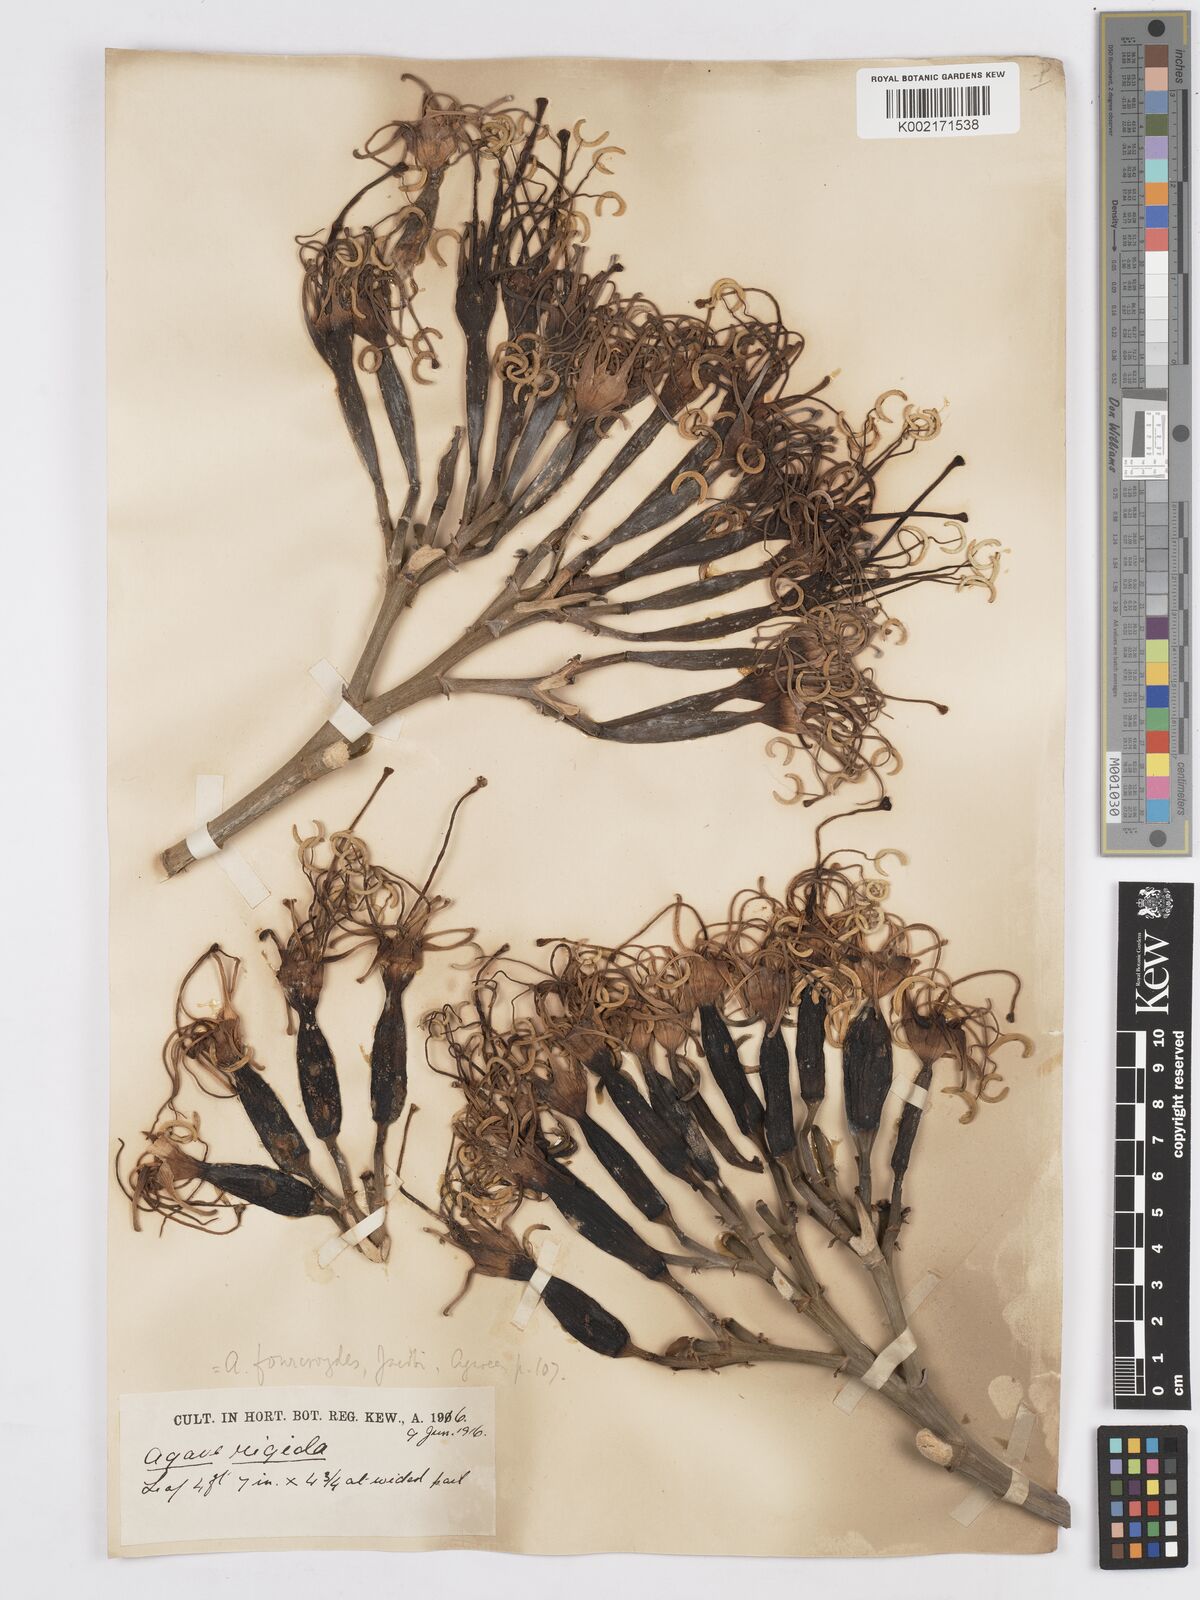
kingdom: Plantae
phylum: Tracheophyta
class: Liliopsida
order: Asparagales
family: Asparagaceae
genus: Agave
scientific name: Agave
